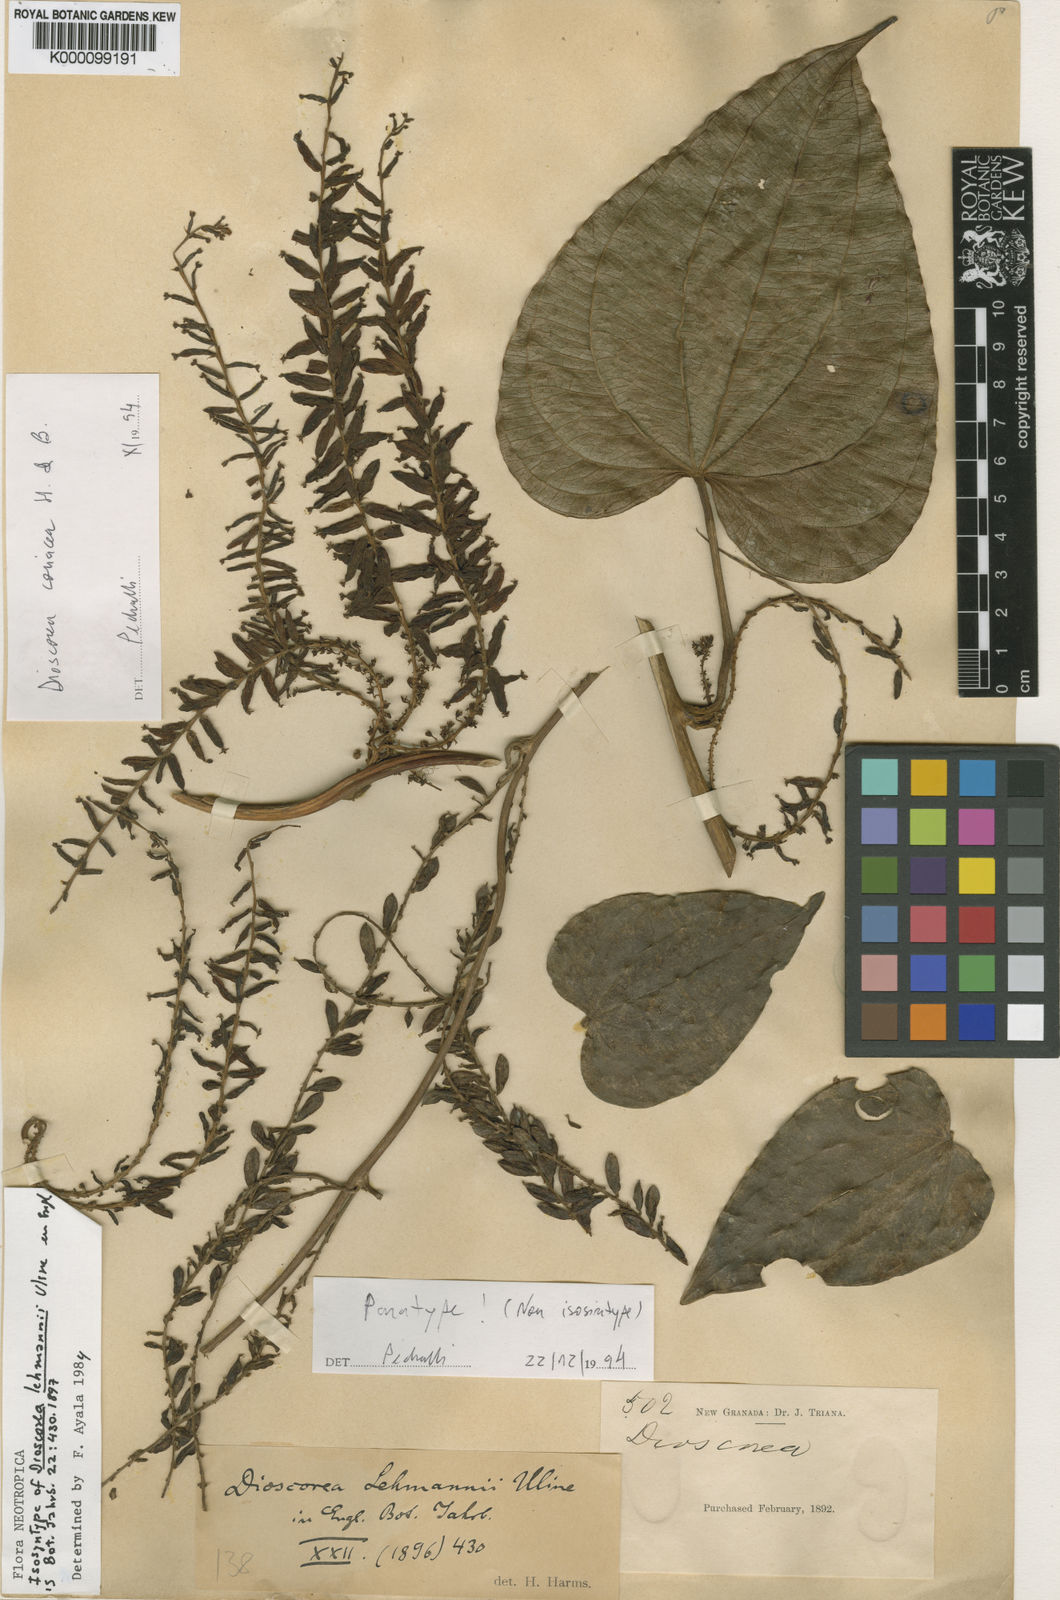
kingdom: Plantae
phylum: Tracheophyta
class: Liliopsida
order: Dioscoreales
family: Dioscoreaceae
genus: Dioscorea
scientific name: Dioscorea lehmannii
